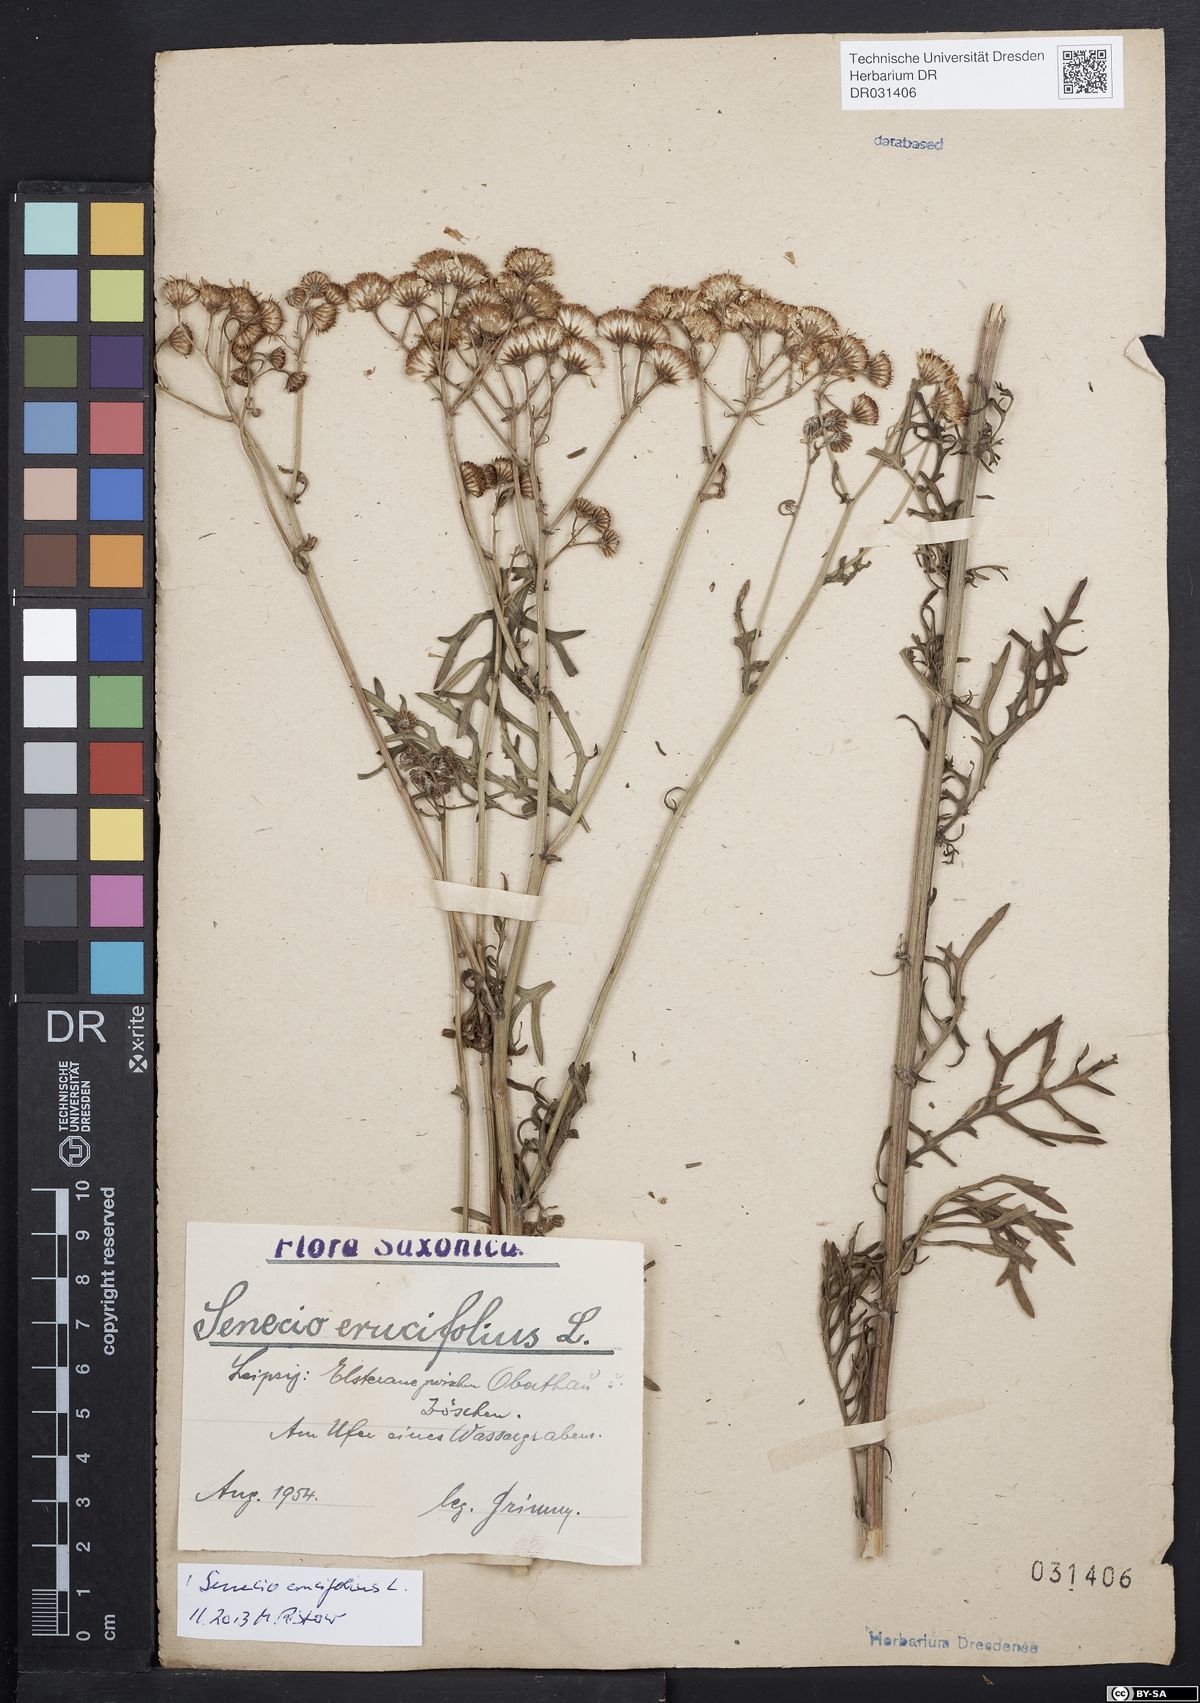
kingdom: Plantae
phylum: Tracheophyta
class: Magnoliopsida
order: Asterales
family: Asteraceae
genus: Jacobaea
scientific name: Jacobaea erucifolia
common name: Hoary ragwort
